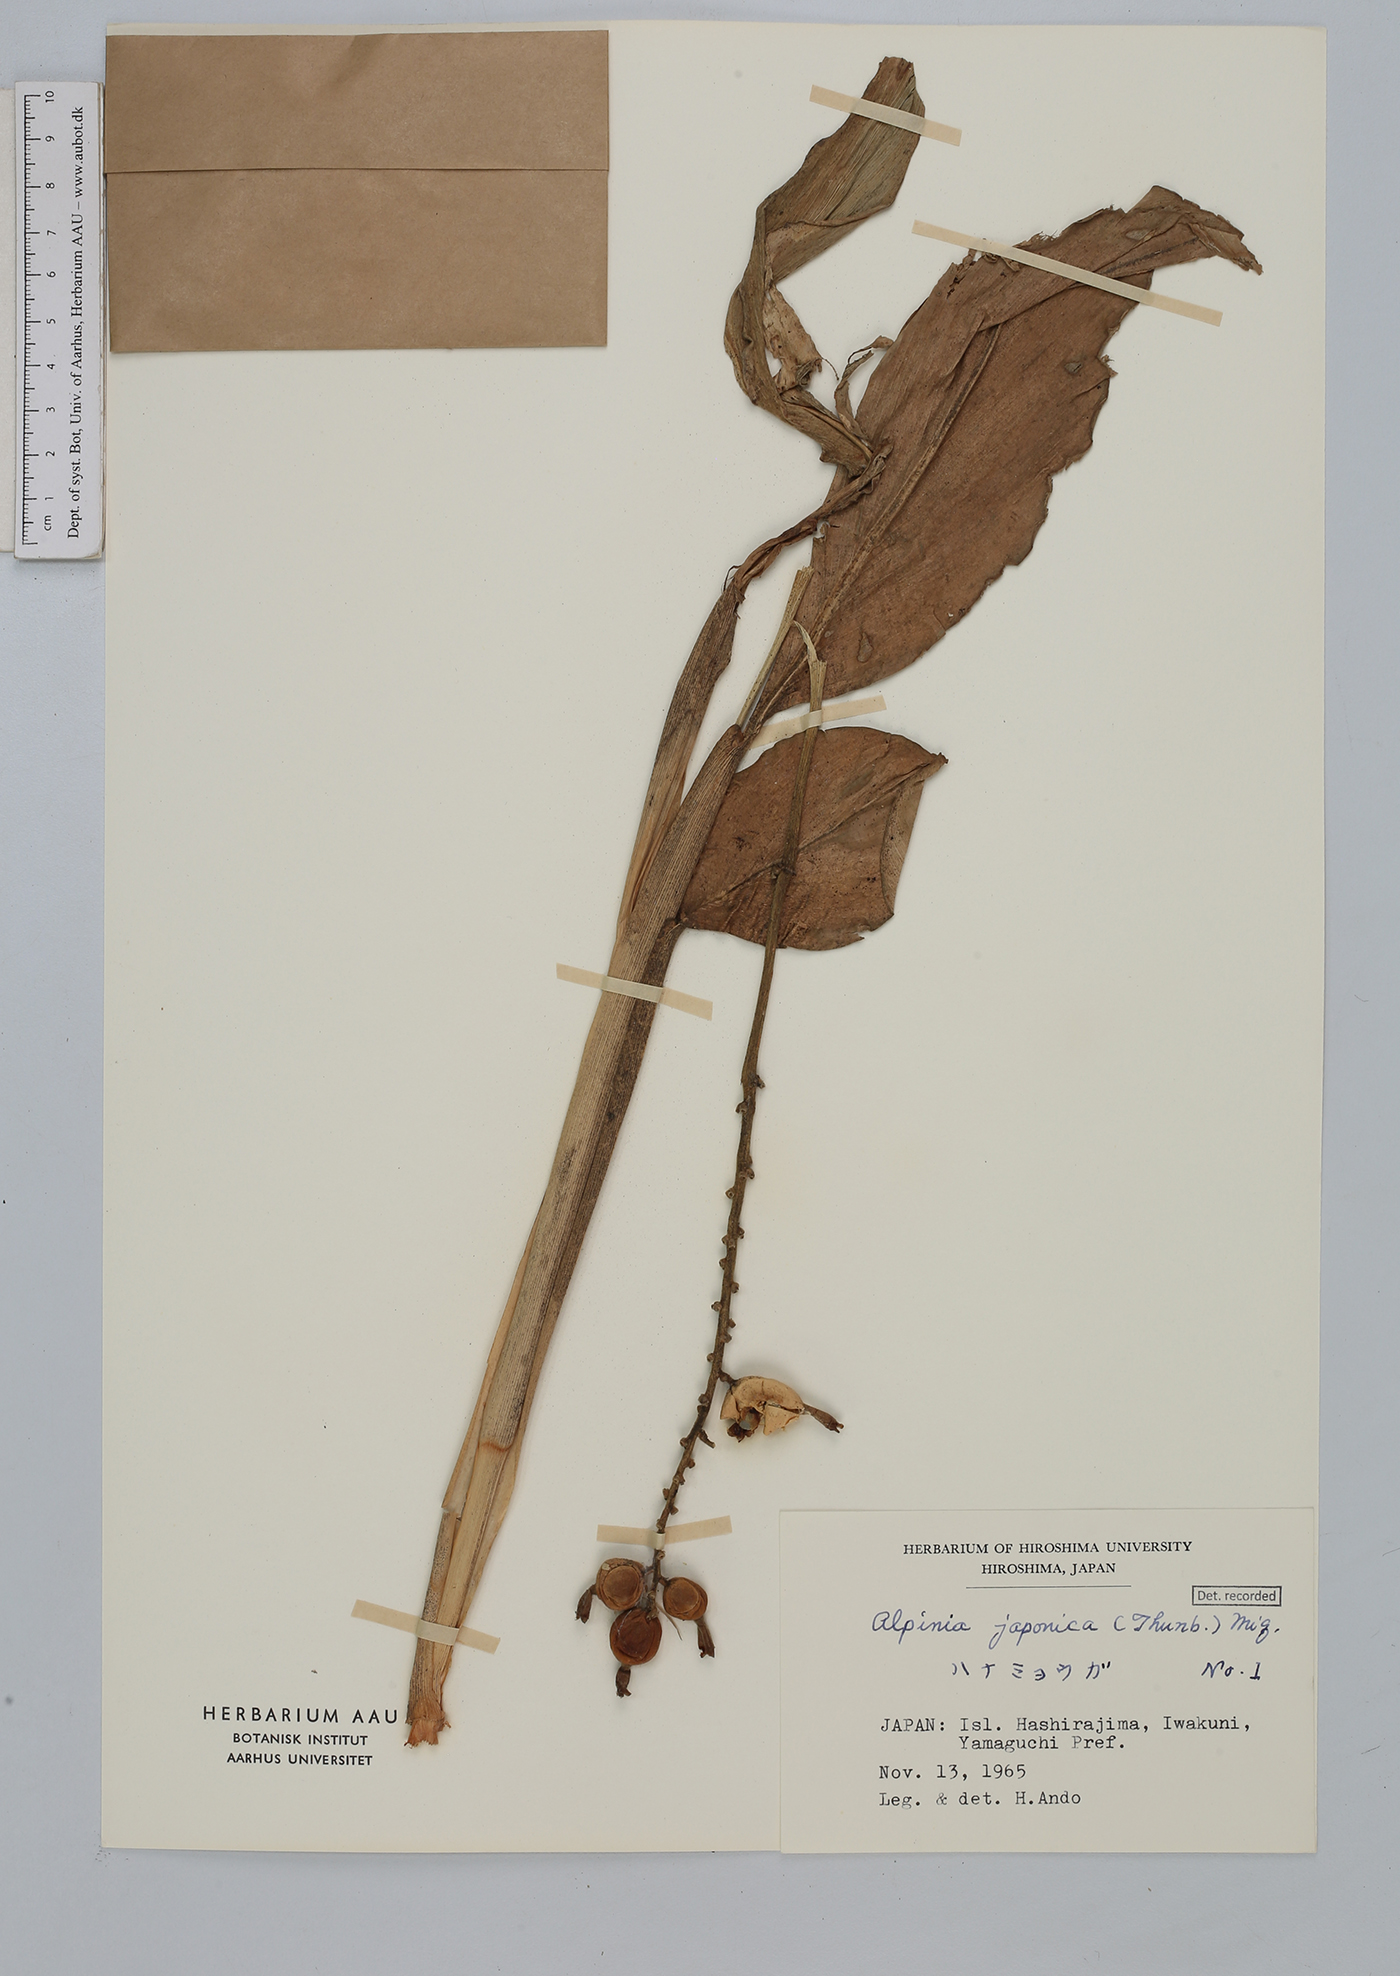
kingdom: Plantae
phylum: Tracheophyta
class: Liliopsida
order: Zingiberales
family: Zingiberaceae
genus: Alpinia
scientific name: Alpinia japonica
